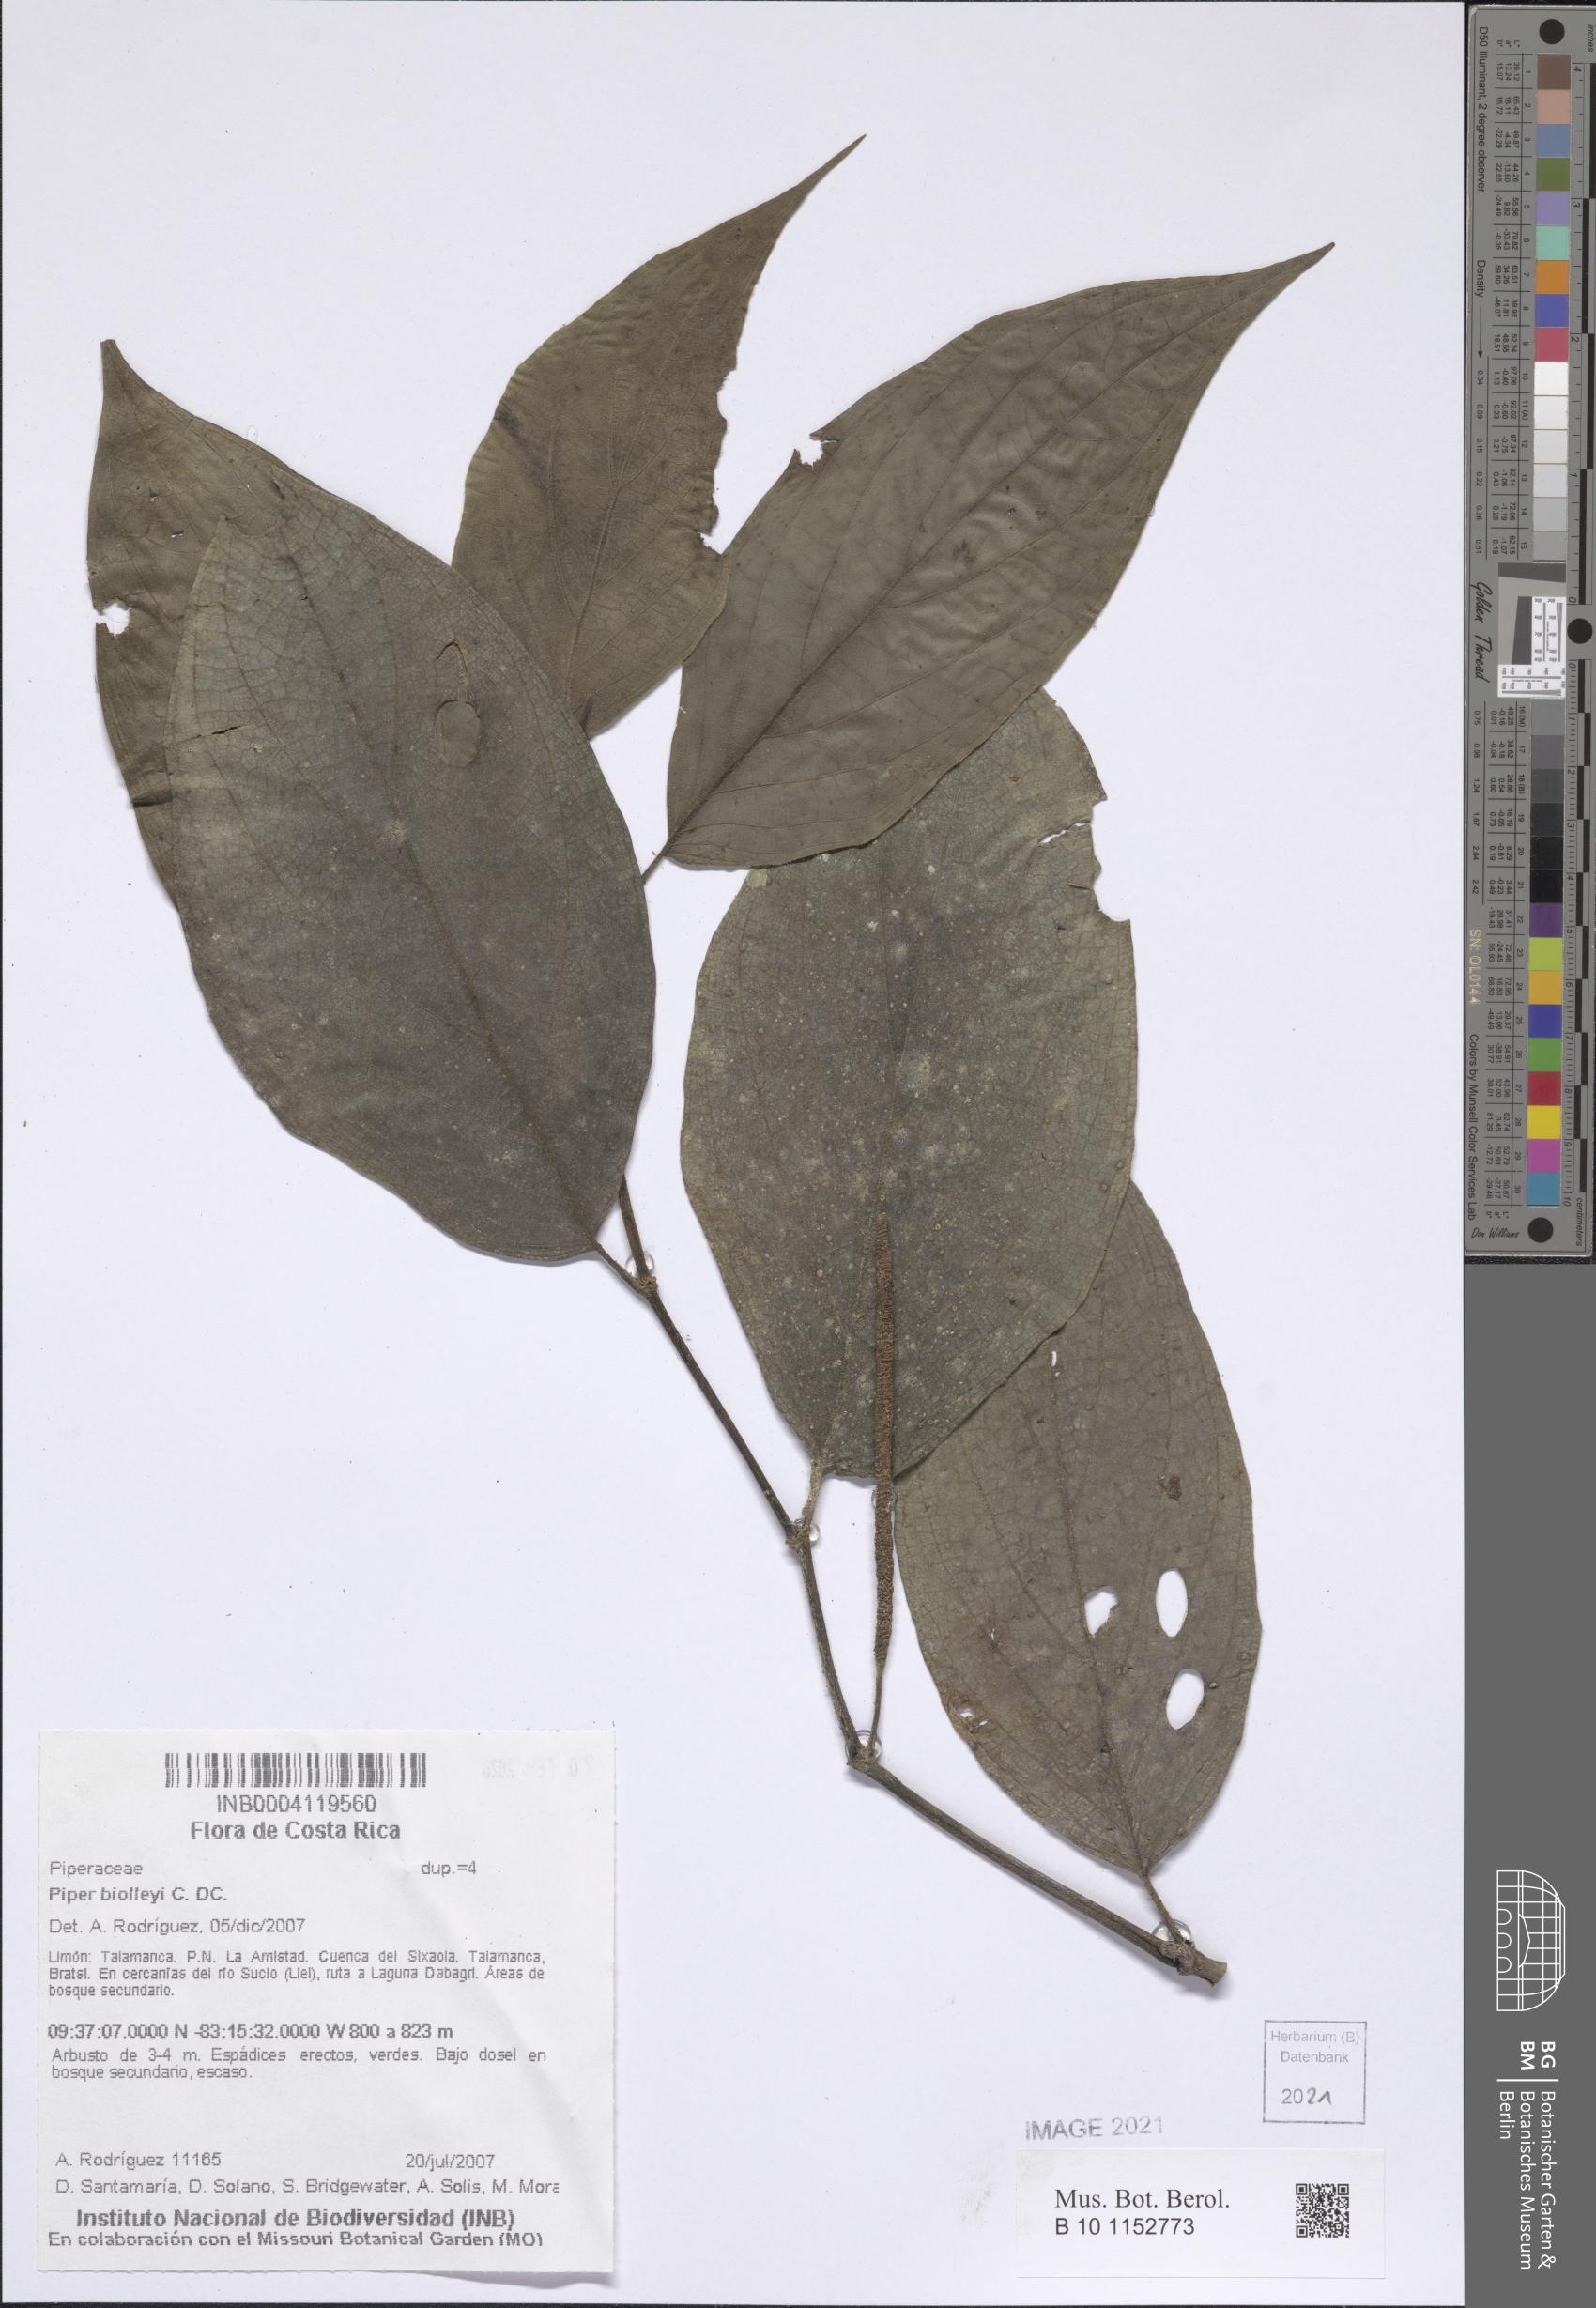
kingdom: Plantae
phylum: Tracheophyta
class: Magnoliopsida
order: Piperales
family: Piperaceae
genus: Piper
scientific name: Piper
